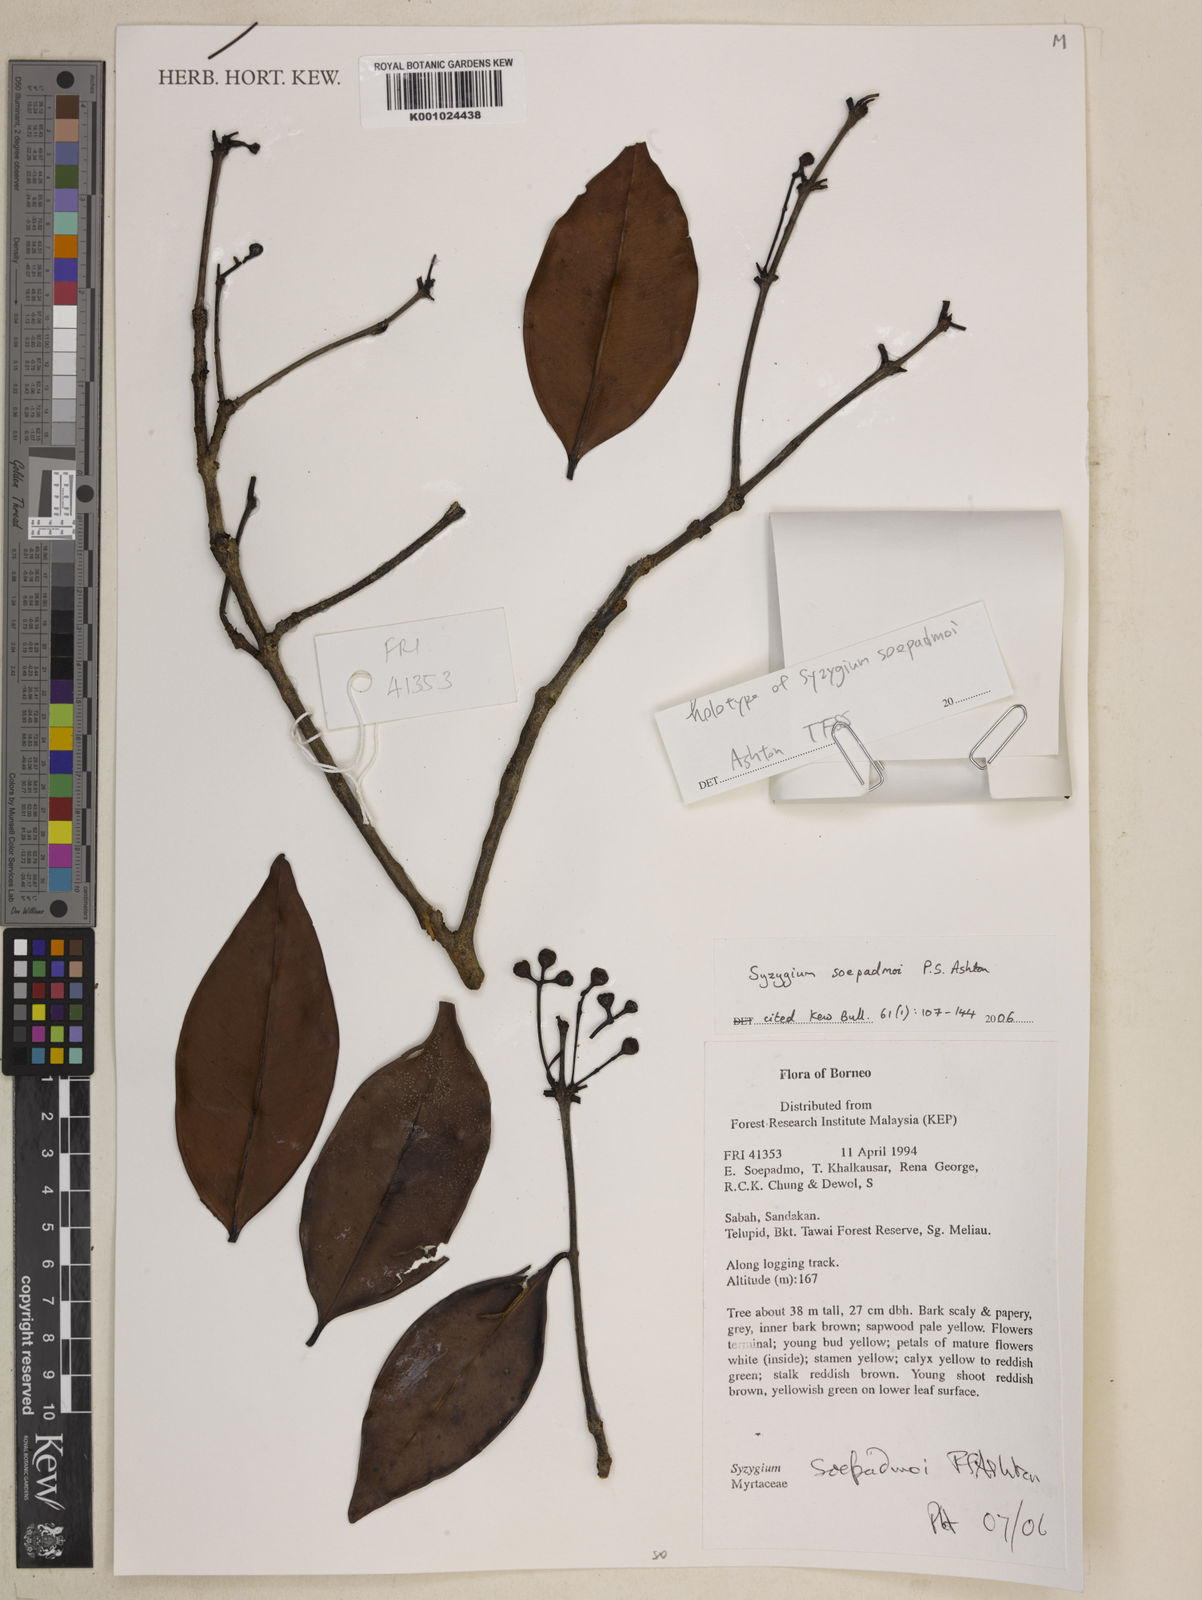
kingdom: Plantae
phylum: Tracheophyta
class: Magnoliopsida
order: Myrtales
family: Myrtaceae
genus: Syzygium
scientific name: Syzygium soepadmoi
